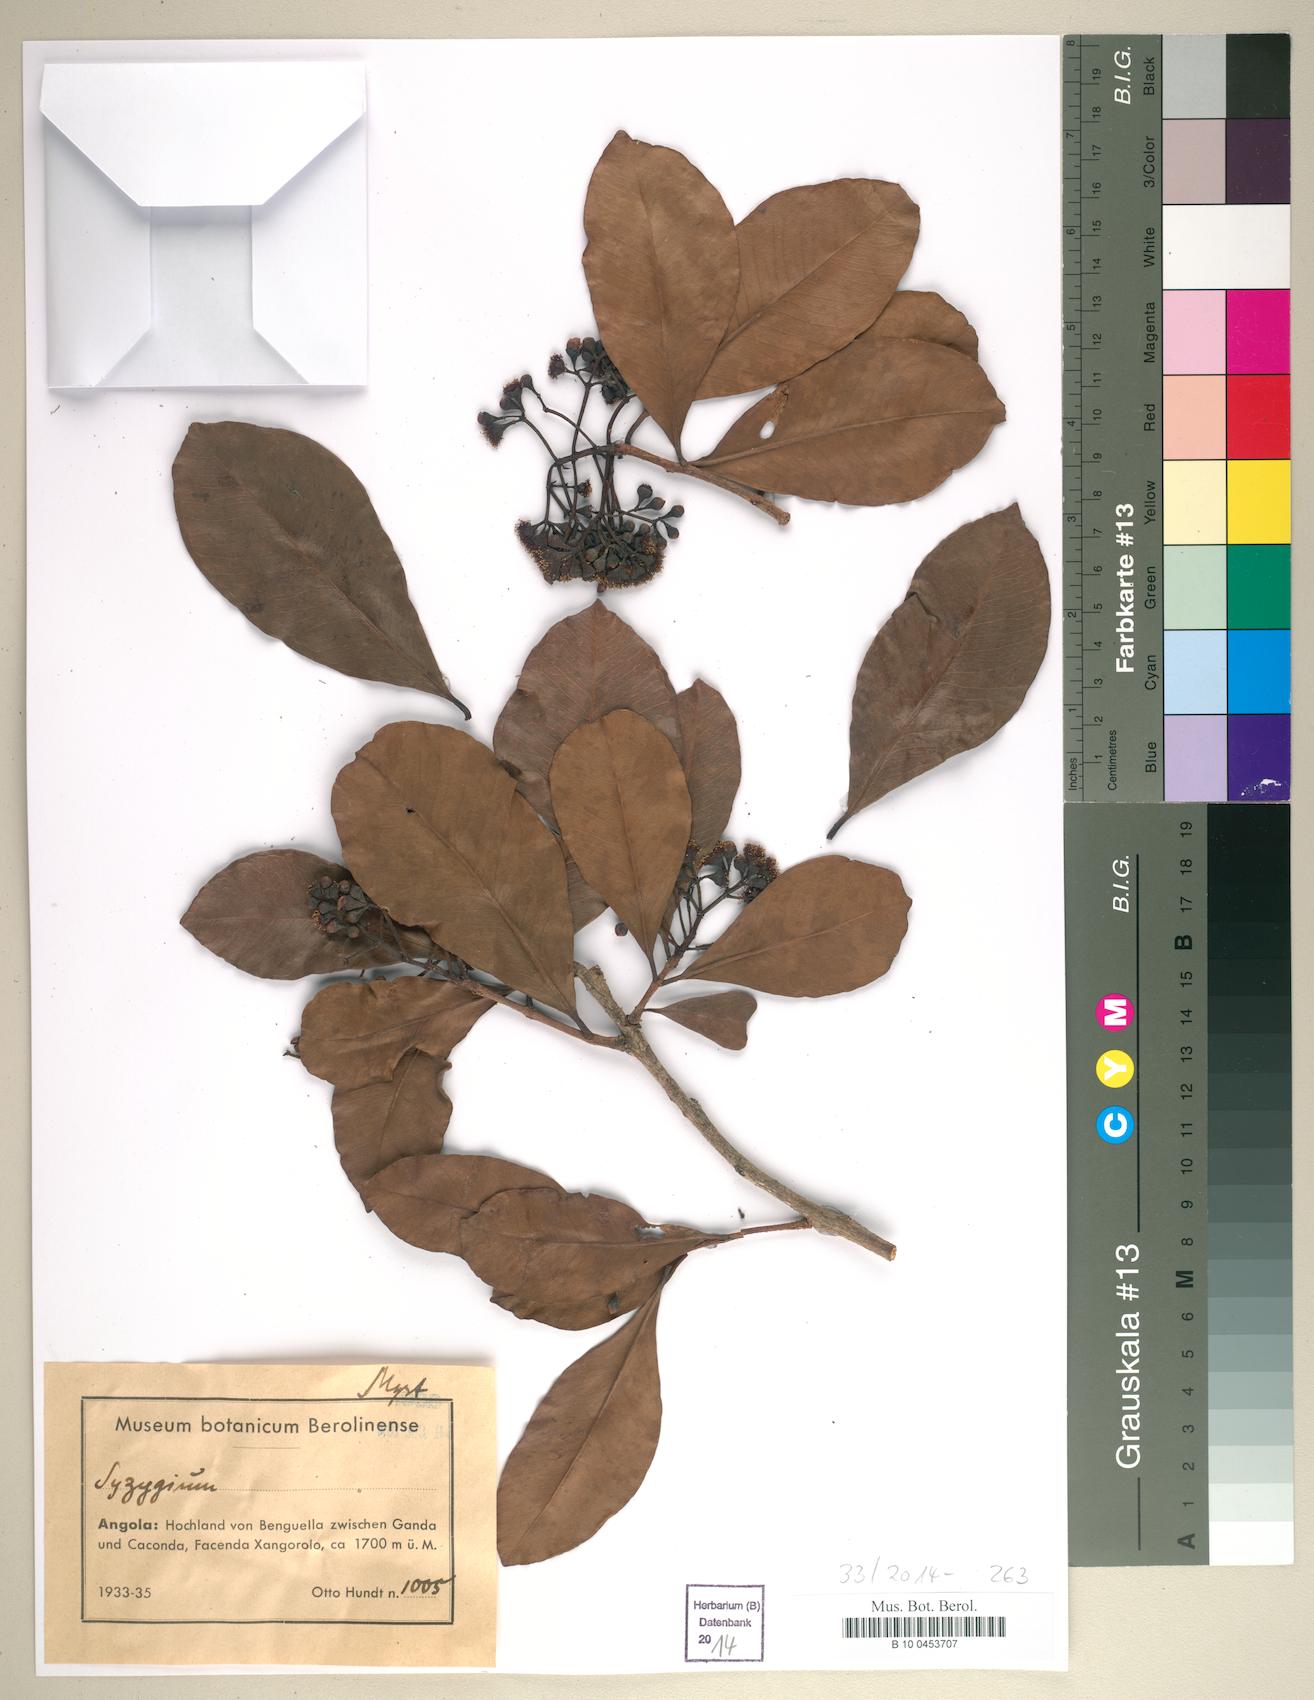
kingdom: Plantae
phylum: Tracheophyta
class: Magnoliopsida
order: Myrtales
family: Myrtaceae
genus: Syzygium
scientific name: Syzygium
